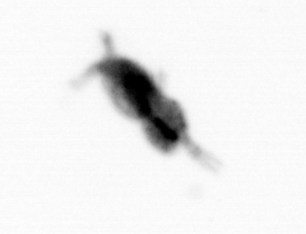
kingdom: Animalia
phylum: Arthropoda
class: Copepoda
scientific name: Copepoda
